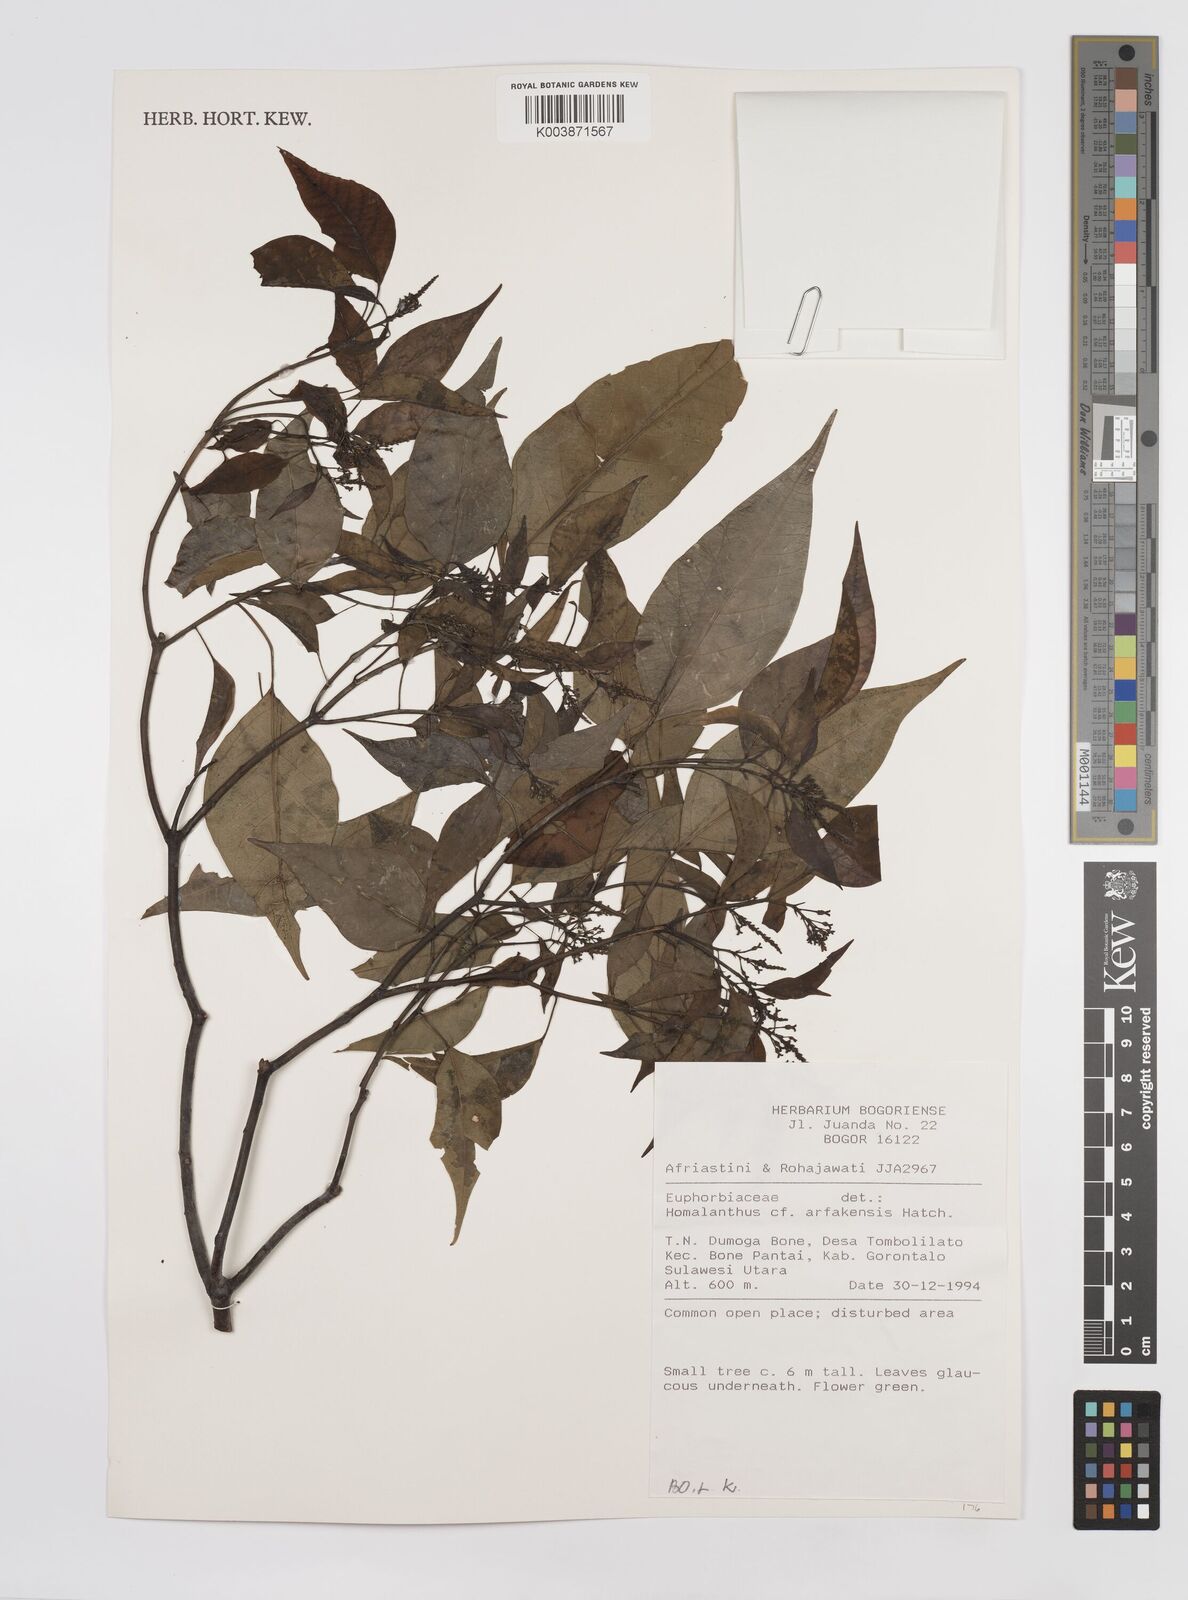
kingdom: Plantae
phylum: Tracheophyta
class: Magnoliopsida
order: Malpighiales
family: Euphorbiaceae
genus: Homalanthus
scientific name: Homalanthus populneus
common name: Spurge
